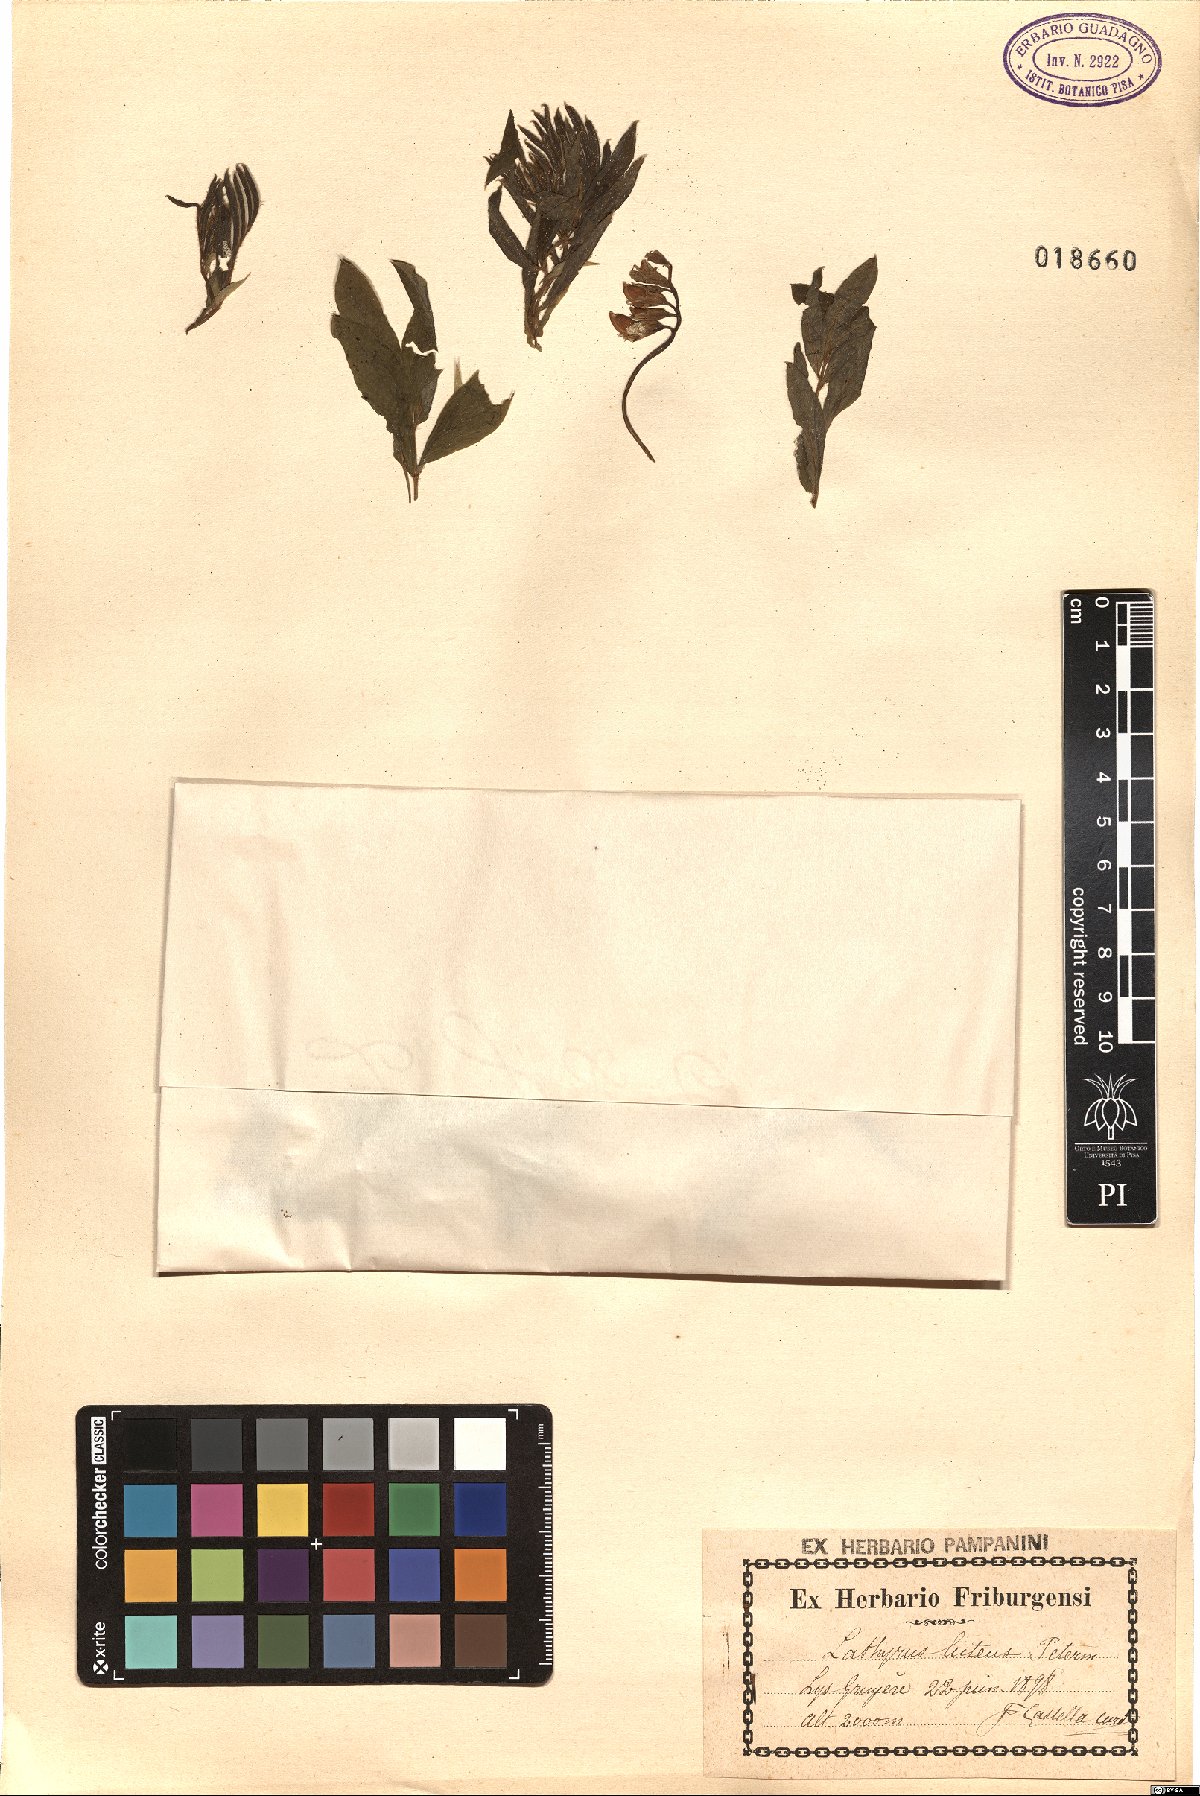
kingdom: Plantae
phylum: Tracheophyta
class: Magnoliopsida
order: Fabales
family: Fabaceae
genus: Lathyrus
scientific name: Lathyrus linifolius
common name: Bitter-vetch
